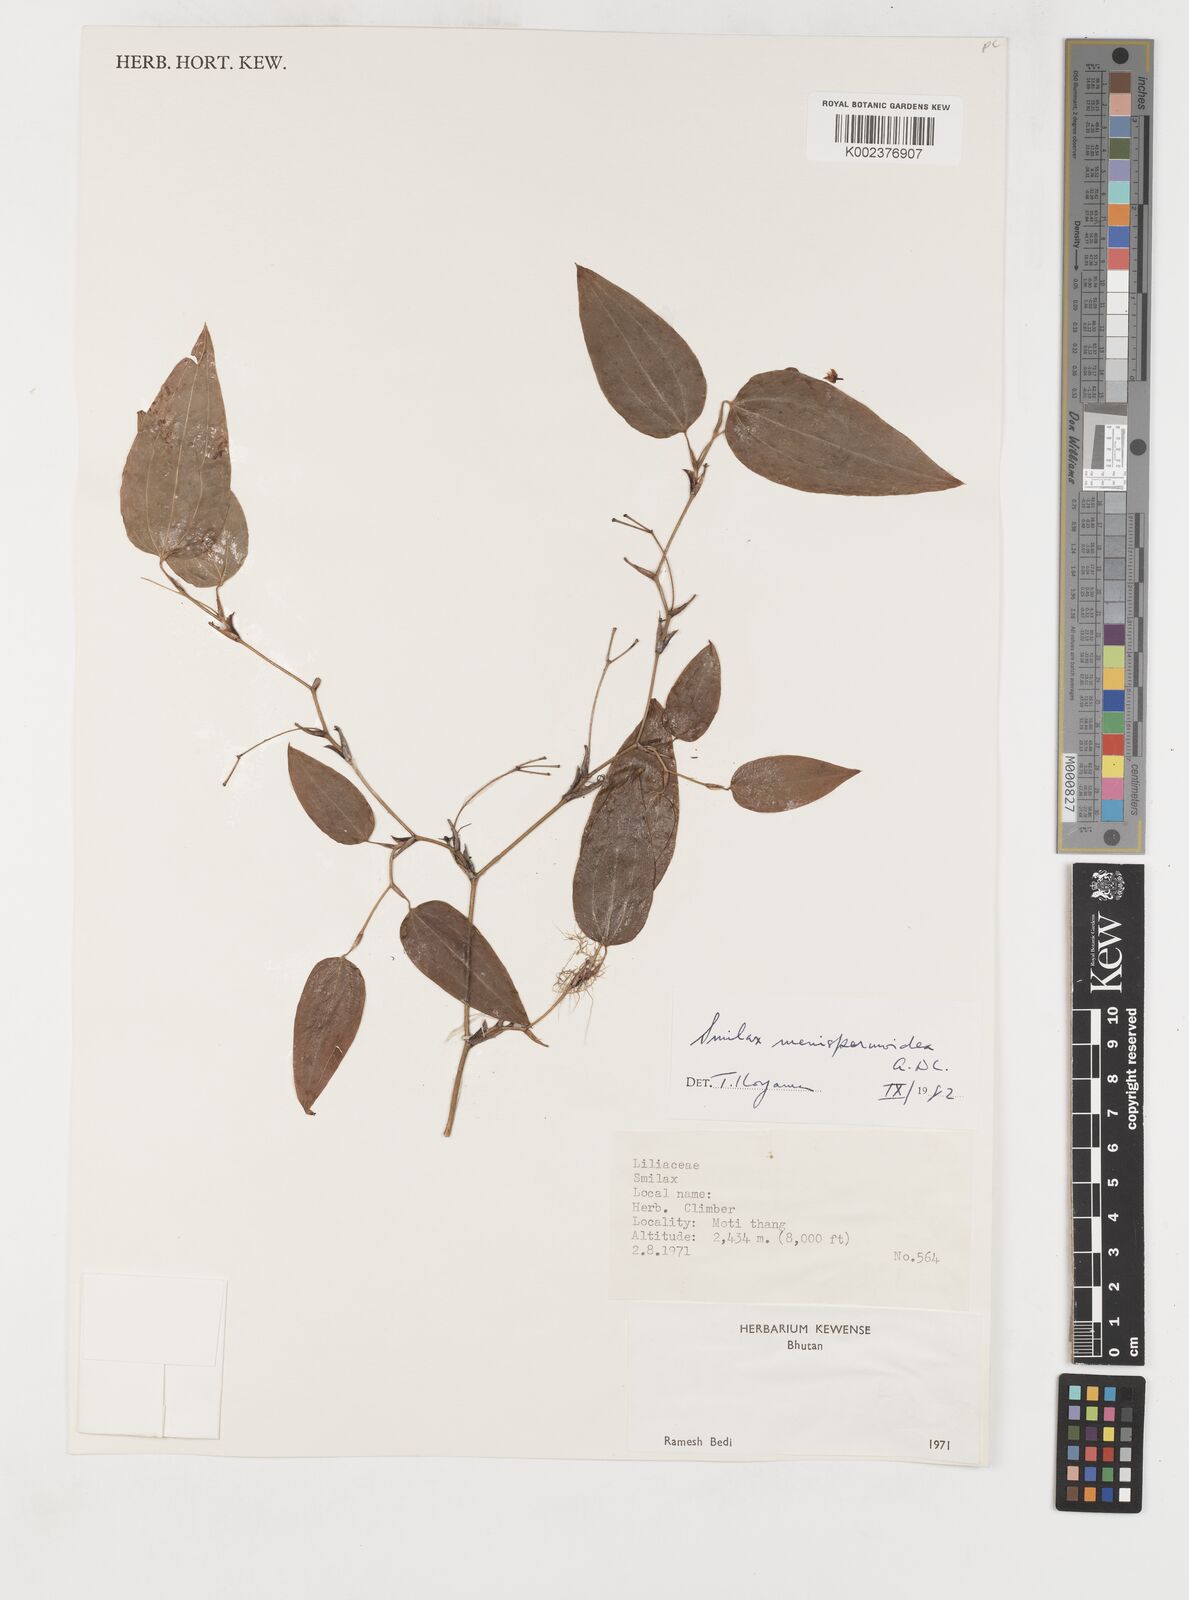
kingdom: Plantae
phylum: Tracheophyta
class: Liliopsida
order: Liliales
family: Smilacaceae
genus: Smilax
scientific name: Smilax menispermoidea
